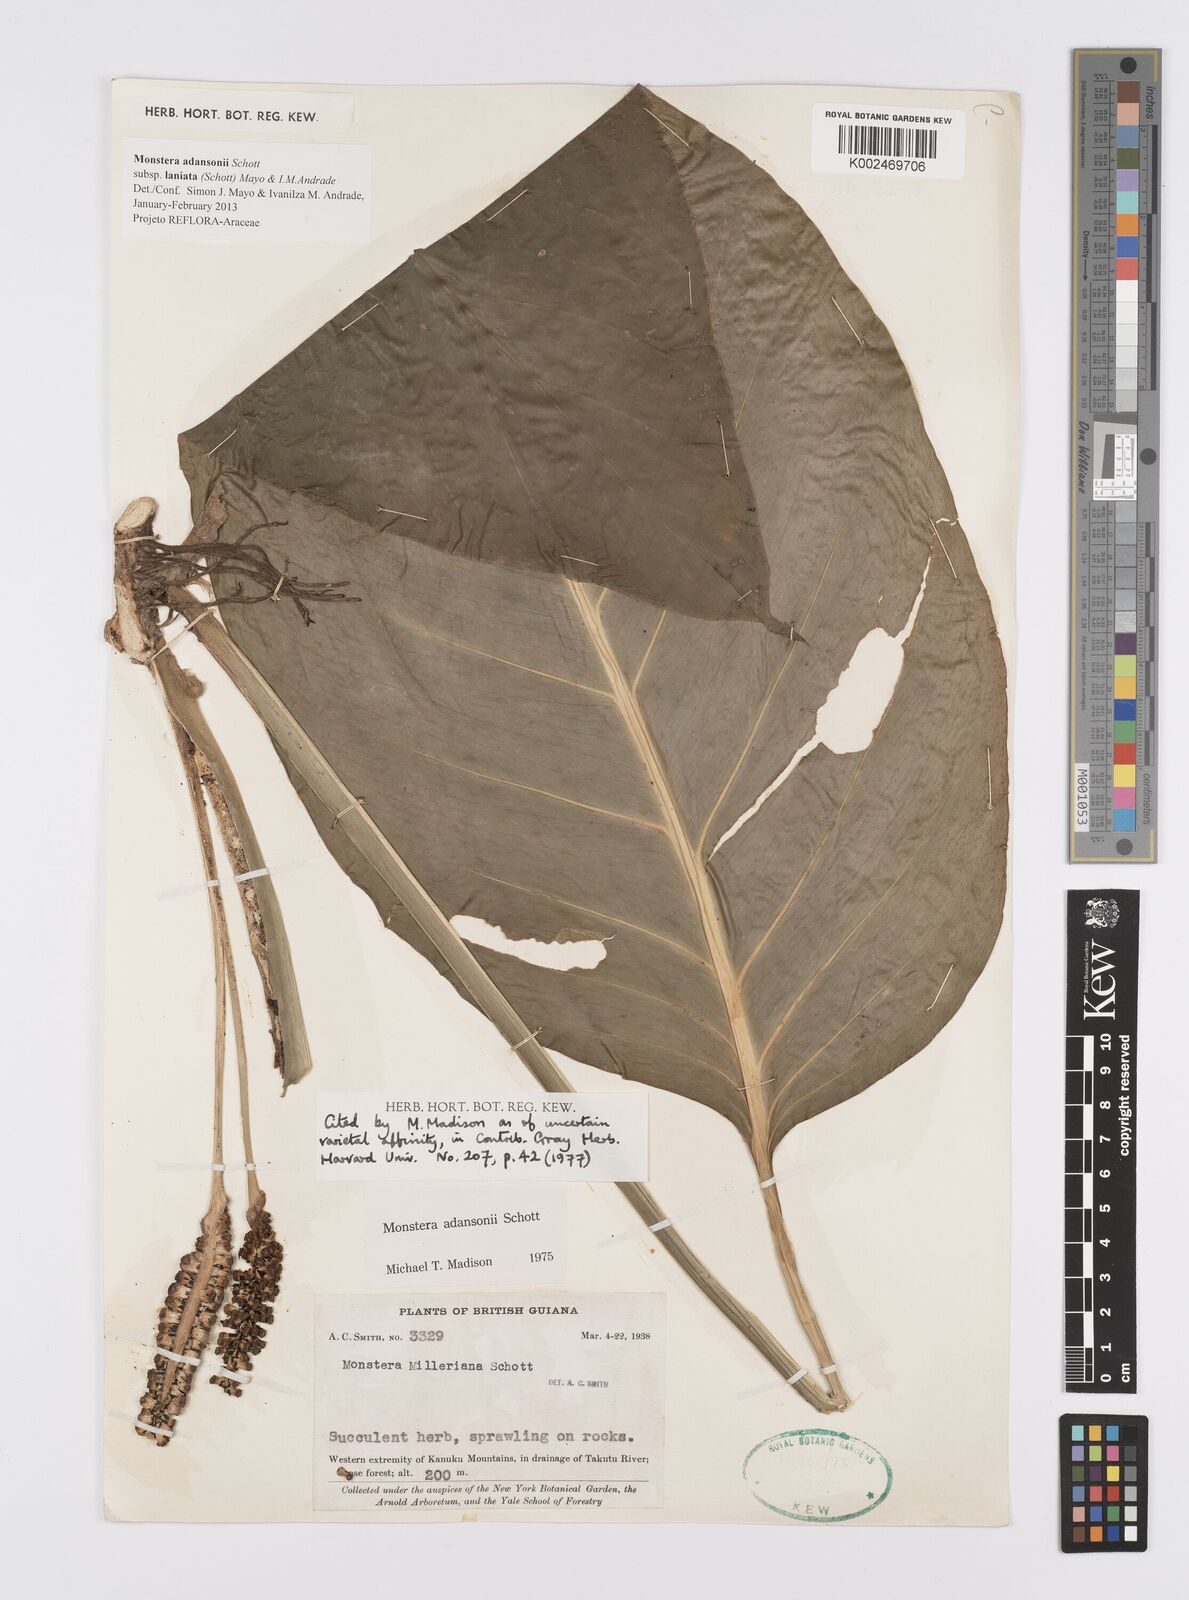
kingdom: Plantae
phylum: Tracheophyta
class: Liliopsida
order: Alismatales
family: Araceae
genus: Monstera
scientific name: Monstera adansonii
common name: Tarovine
